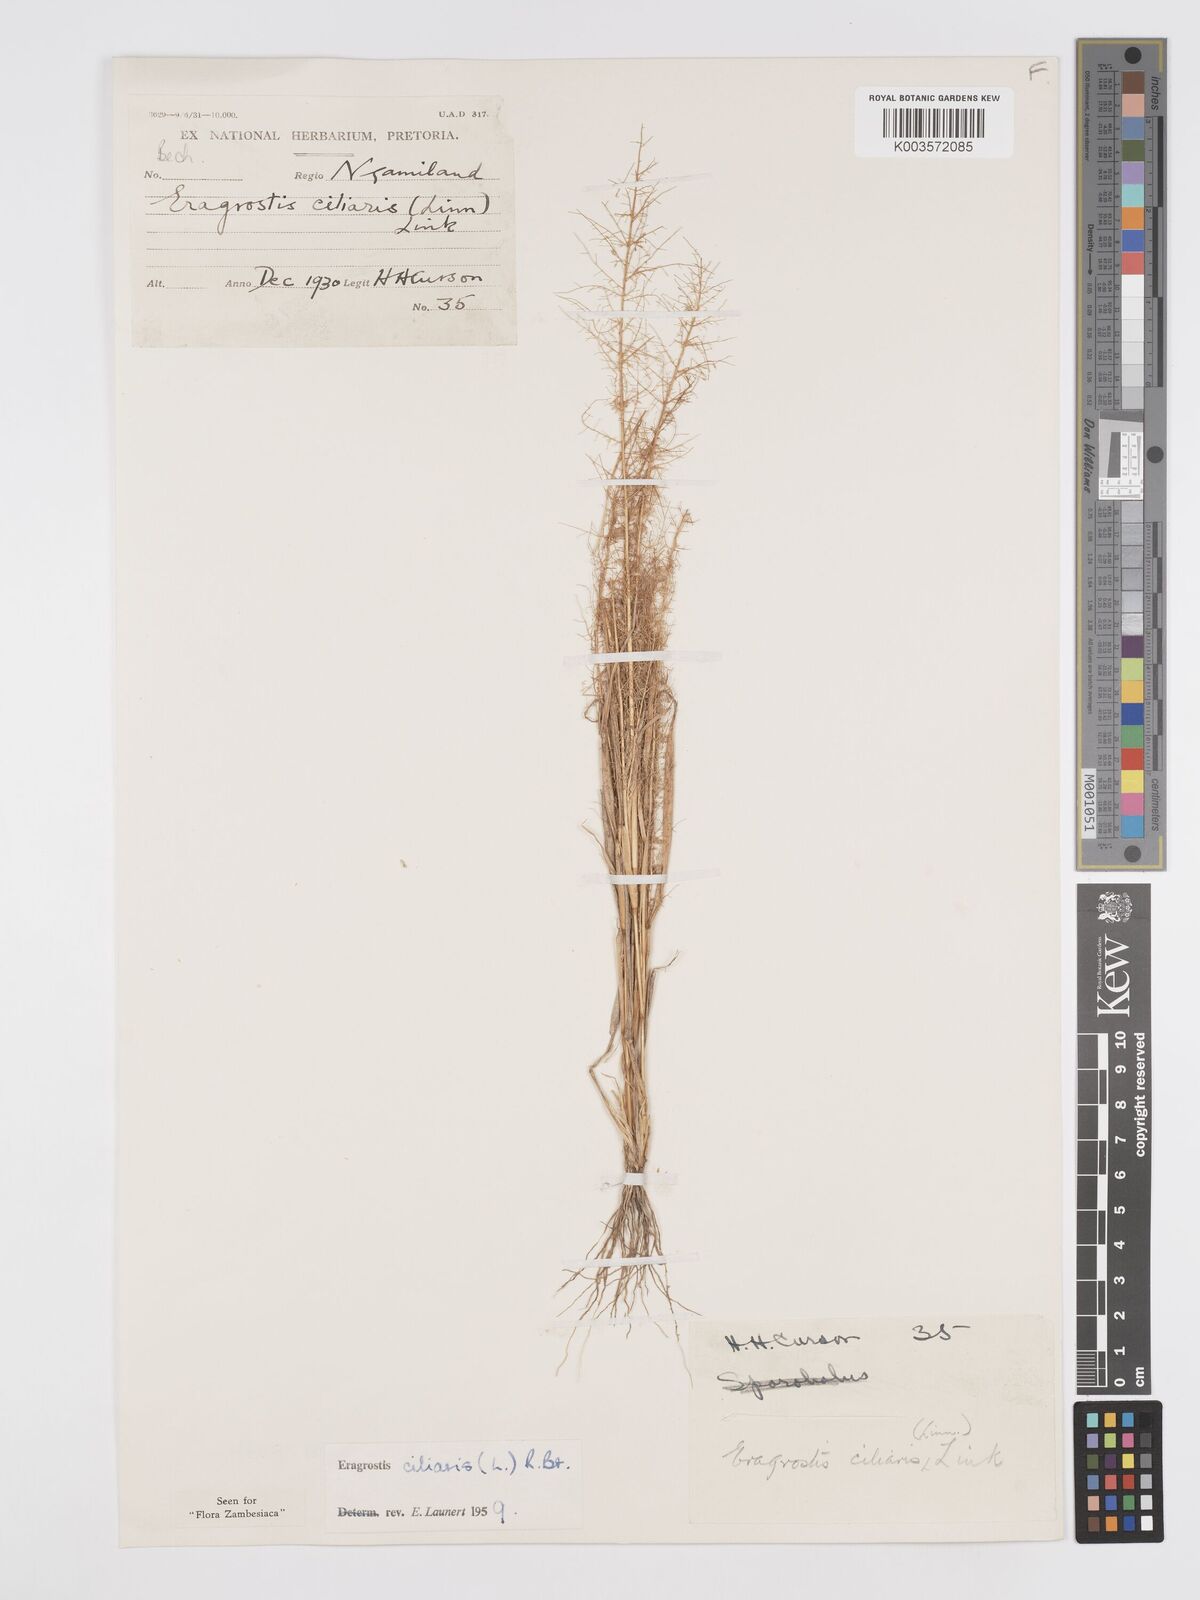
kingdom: Plantae
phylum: Tracheophyta
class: Liliopsida
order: Poales
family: Poaceae
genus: Eragrostis
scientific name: Eragrostis ciliaris
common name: Gophertail lovegrass
